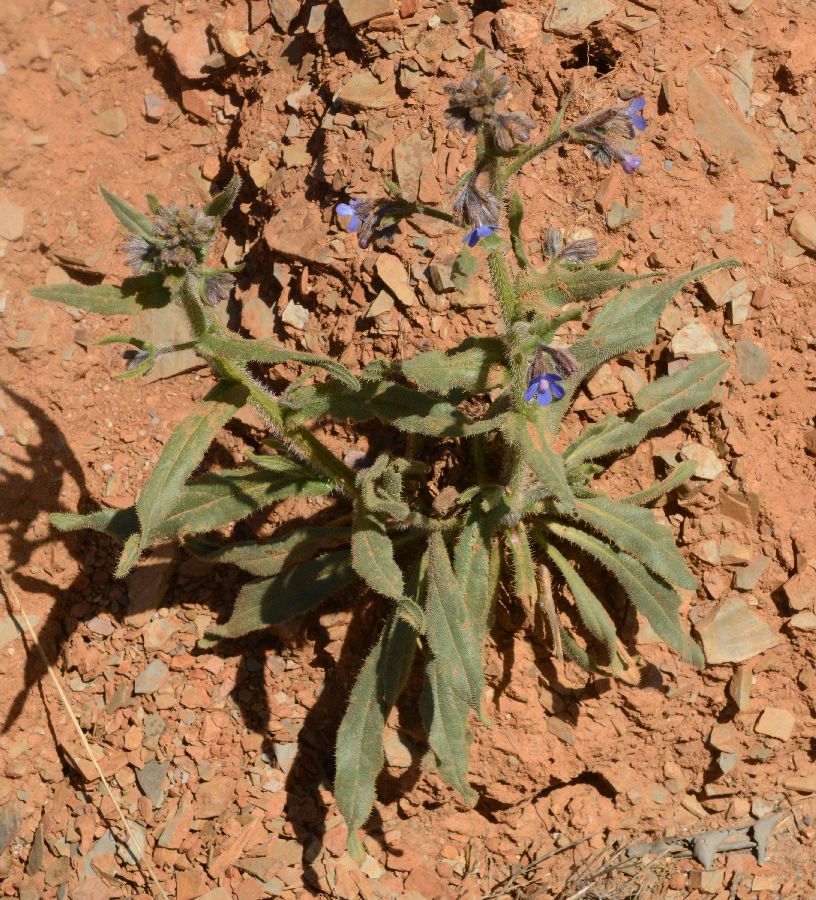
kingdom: Plantae
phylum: Tracheophyta
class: Magnoliopsida
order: Boraginales
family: Boraginaceae
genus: Anchusa
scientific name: Anchusa azurea
